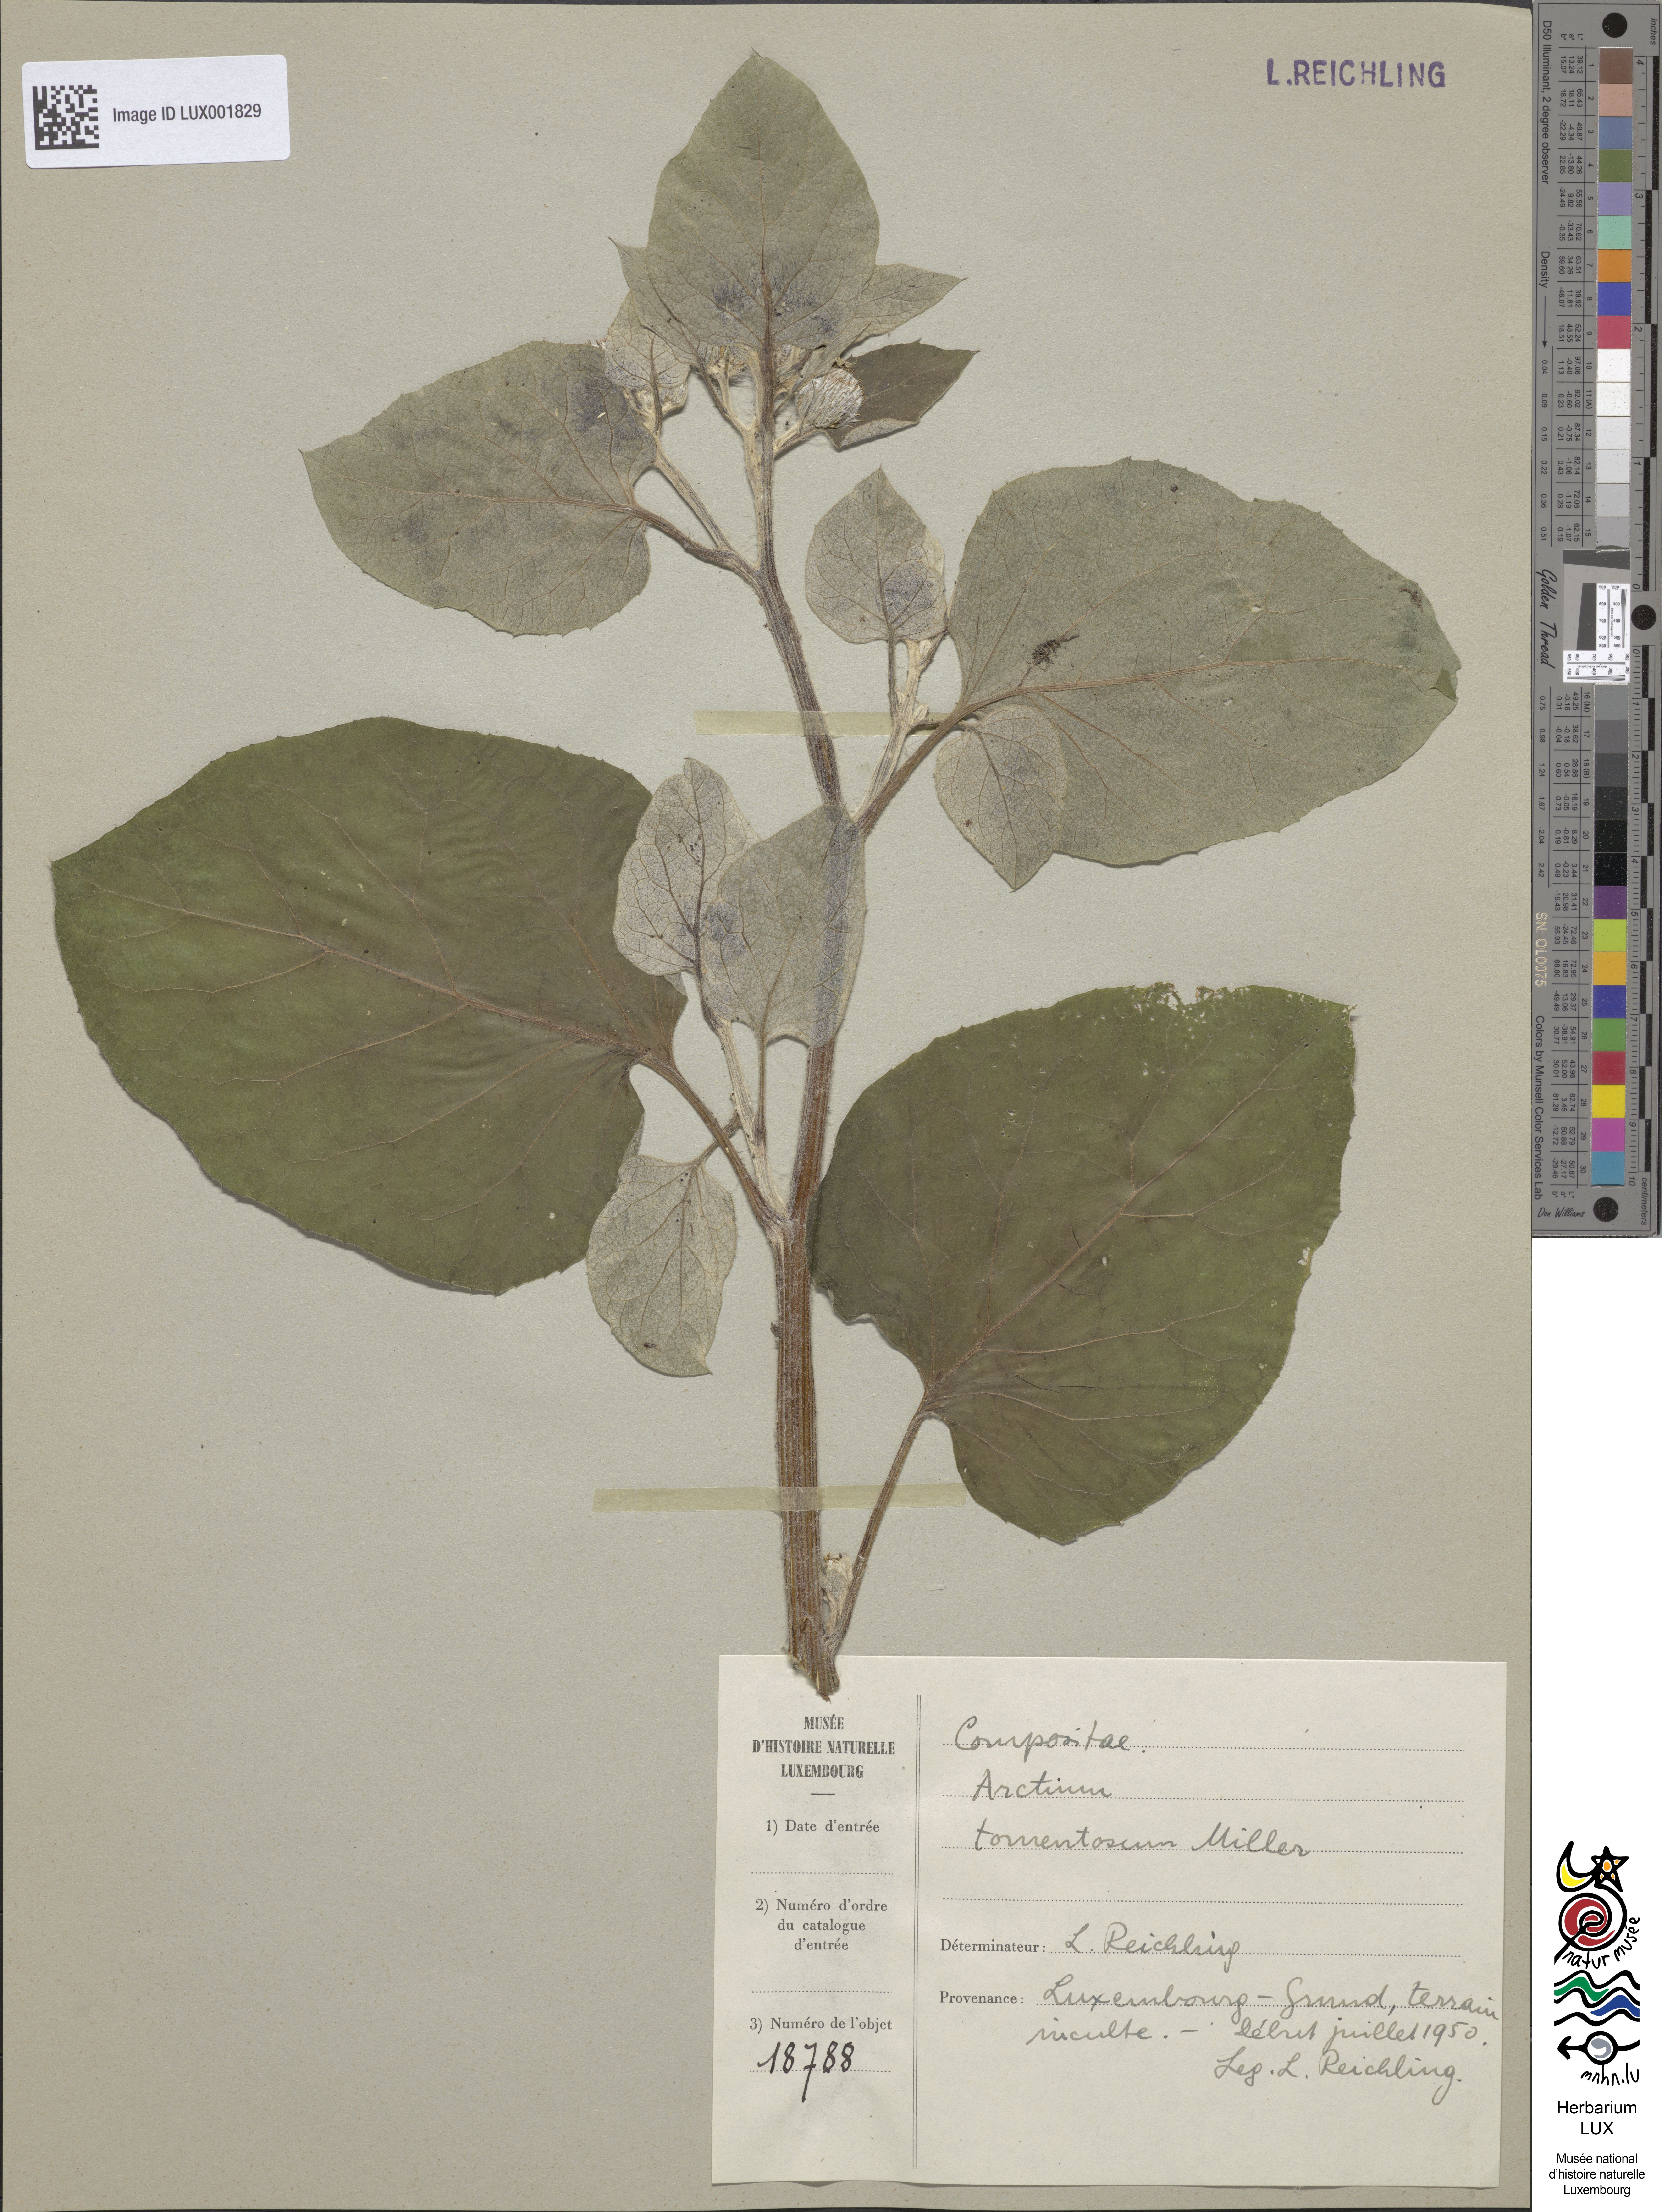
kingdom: Plantae
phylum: Tracheophyta
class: Magnoliopsida
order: Asterales
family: Asteraceae
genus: Arctium
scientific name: Arctium tomentosum
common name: Woolly burdock
